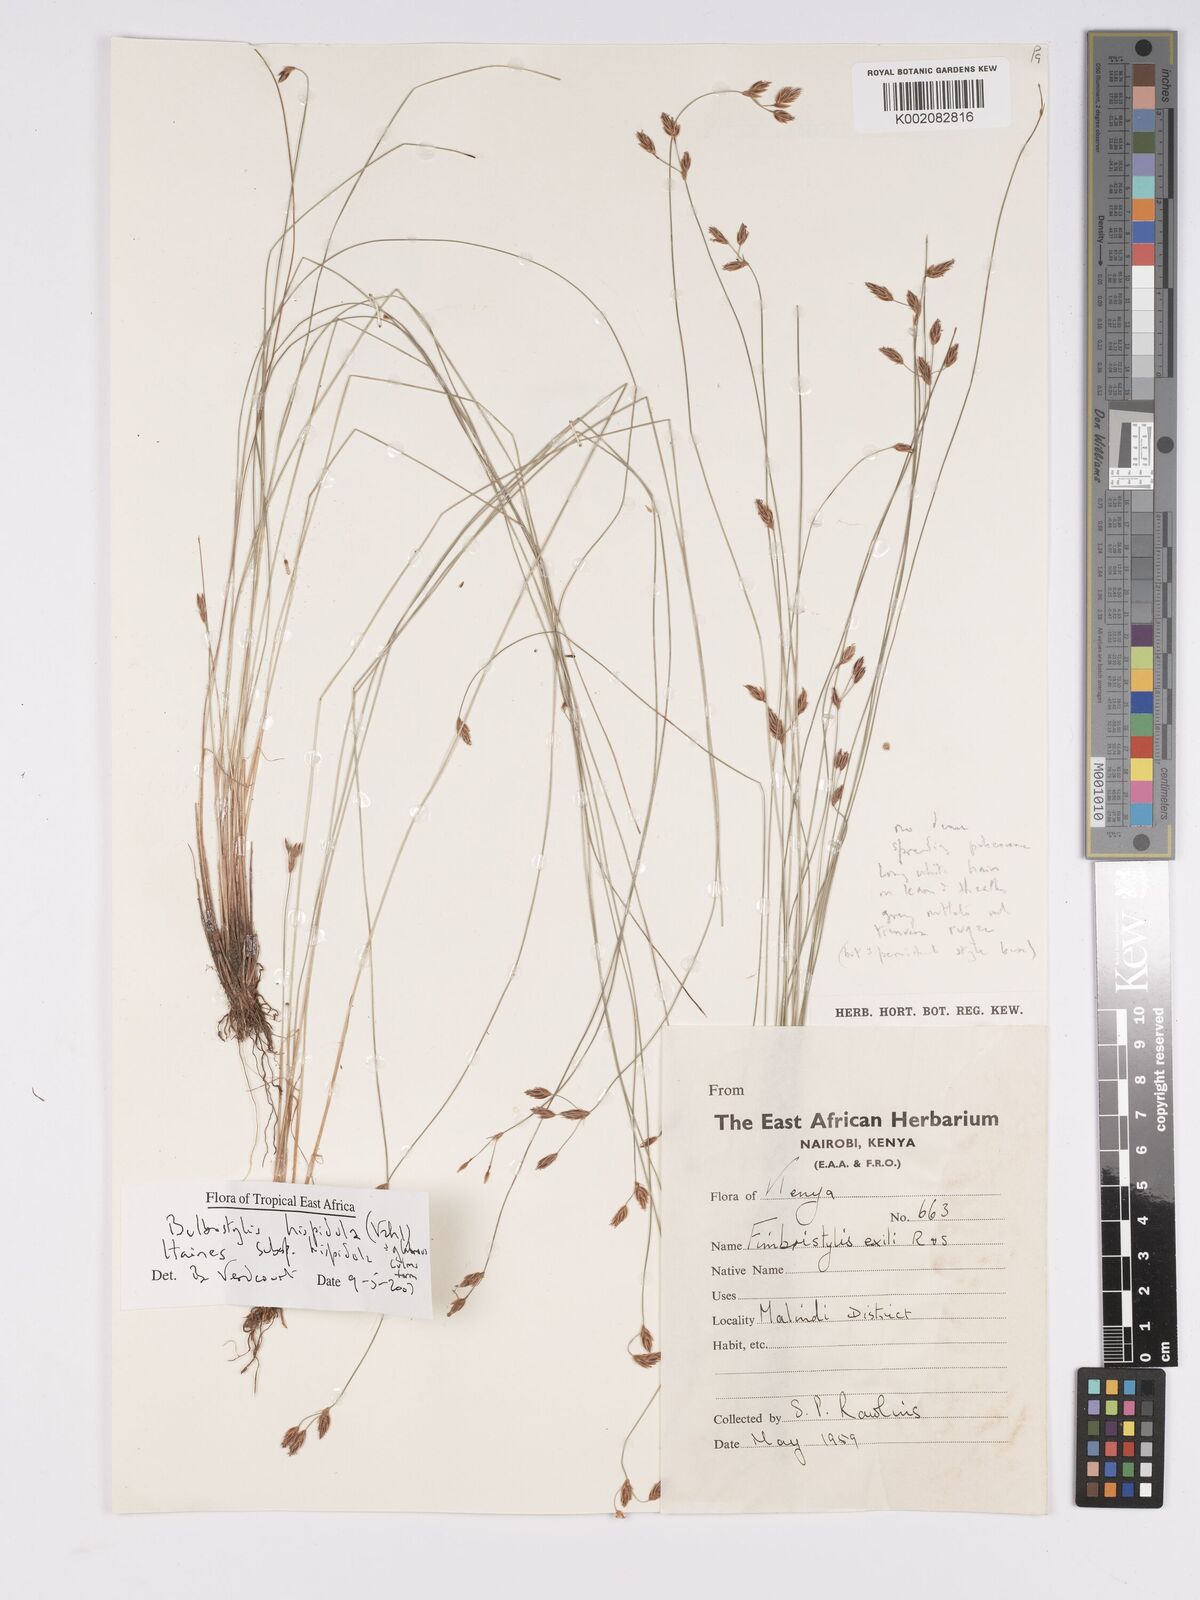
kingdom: Plantae
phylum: Tracheophyta
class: Liliopsida
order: Poales
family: Cyperaceae
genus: Bulbostylis
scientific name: Bulbostylis hispidula
